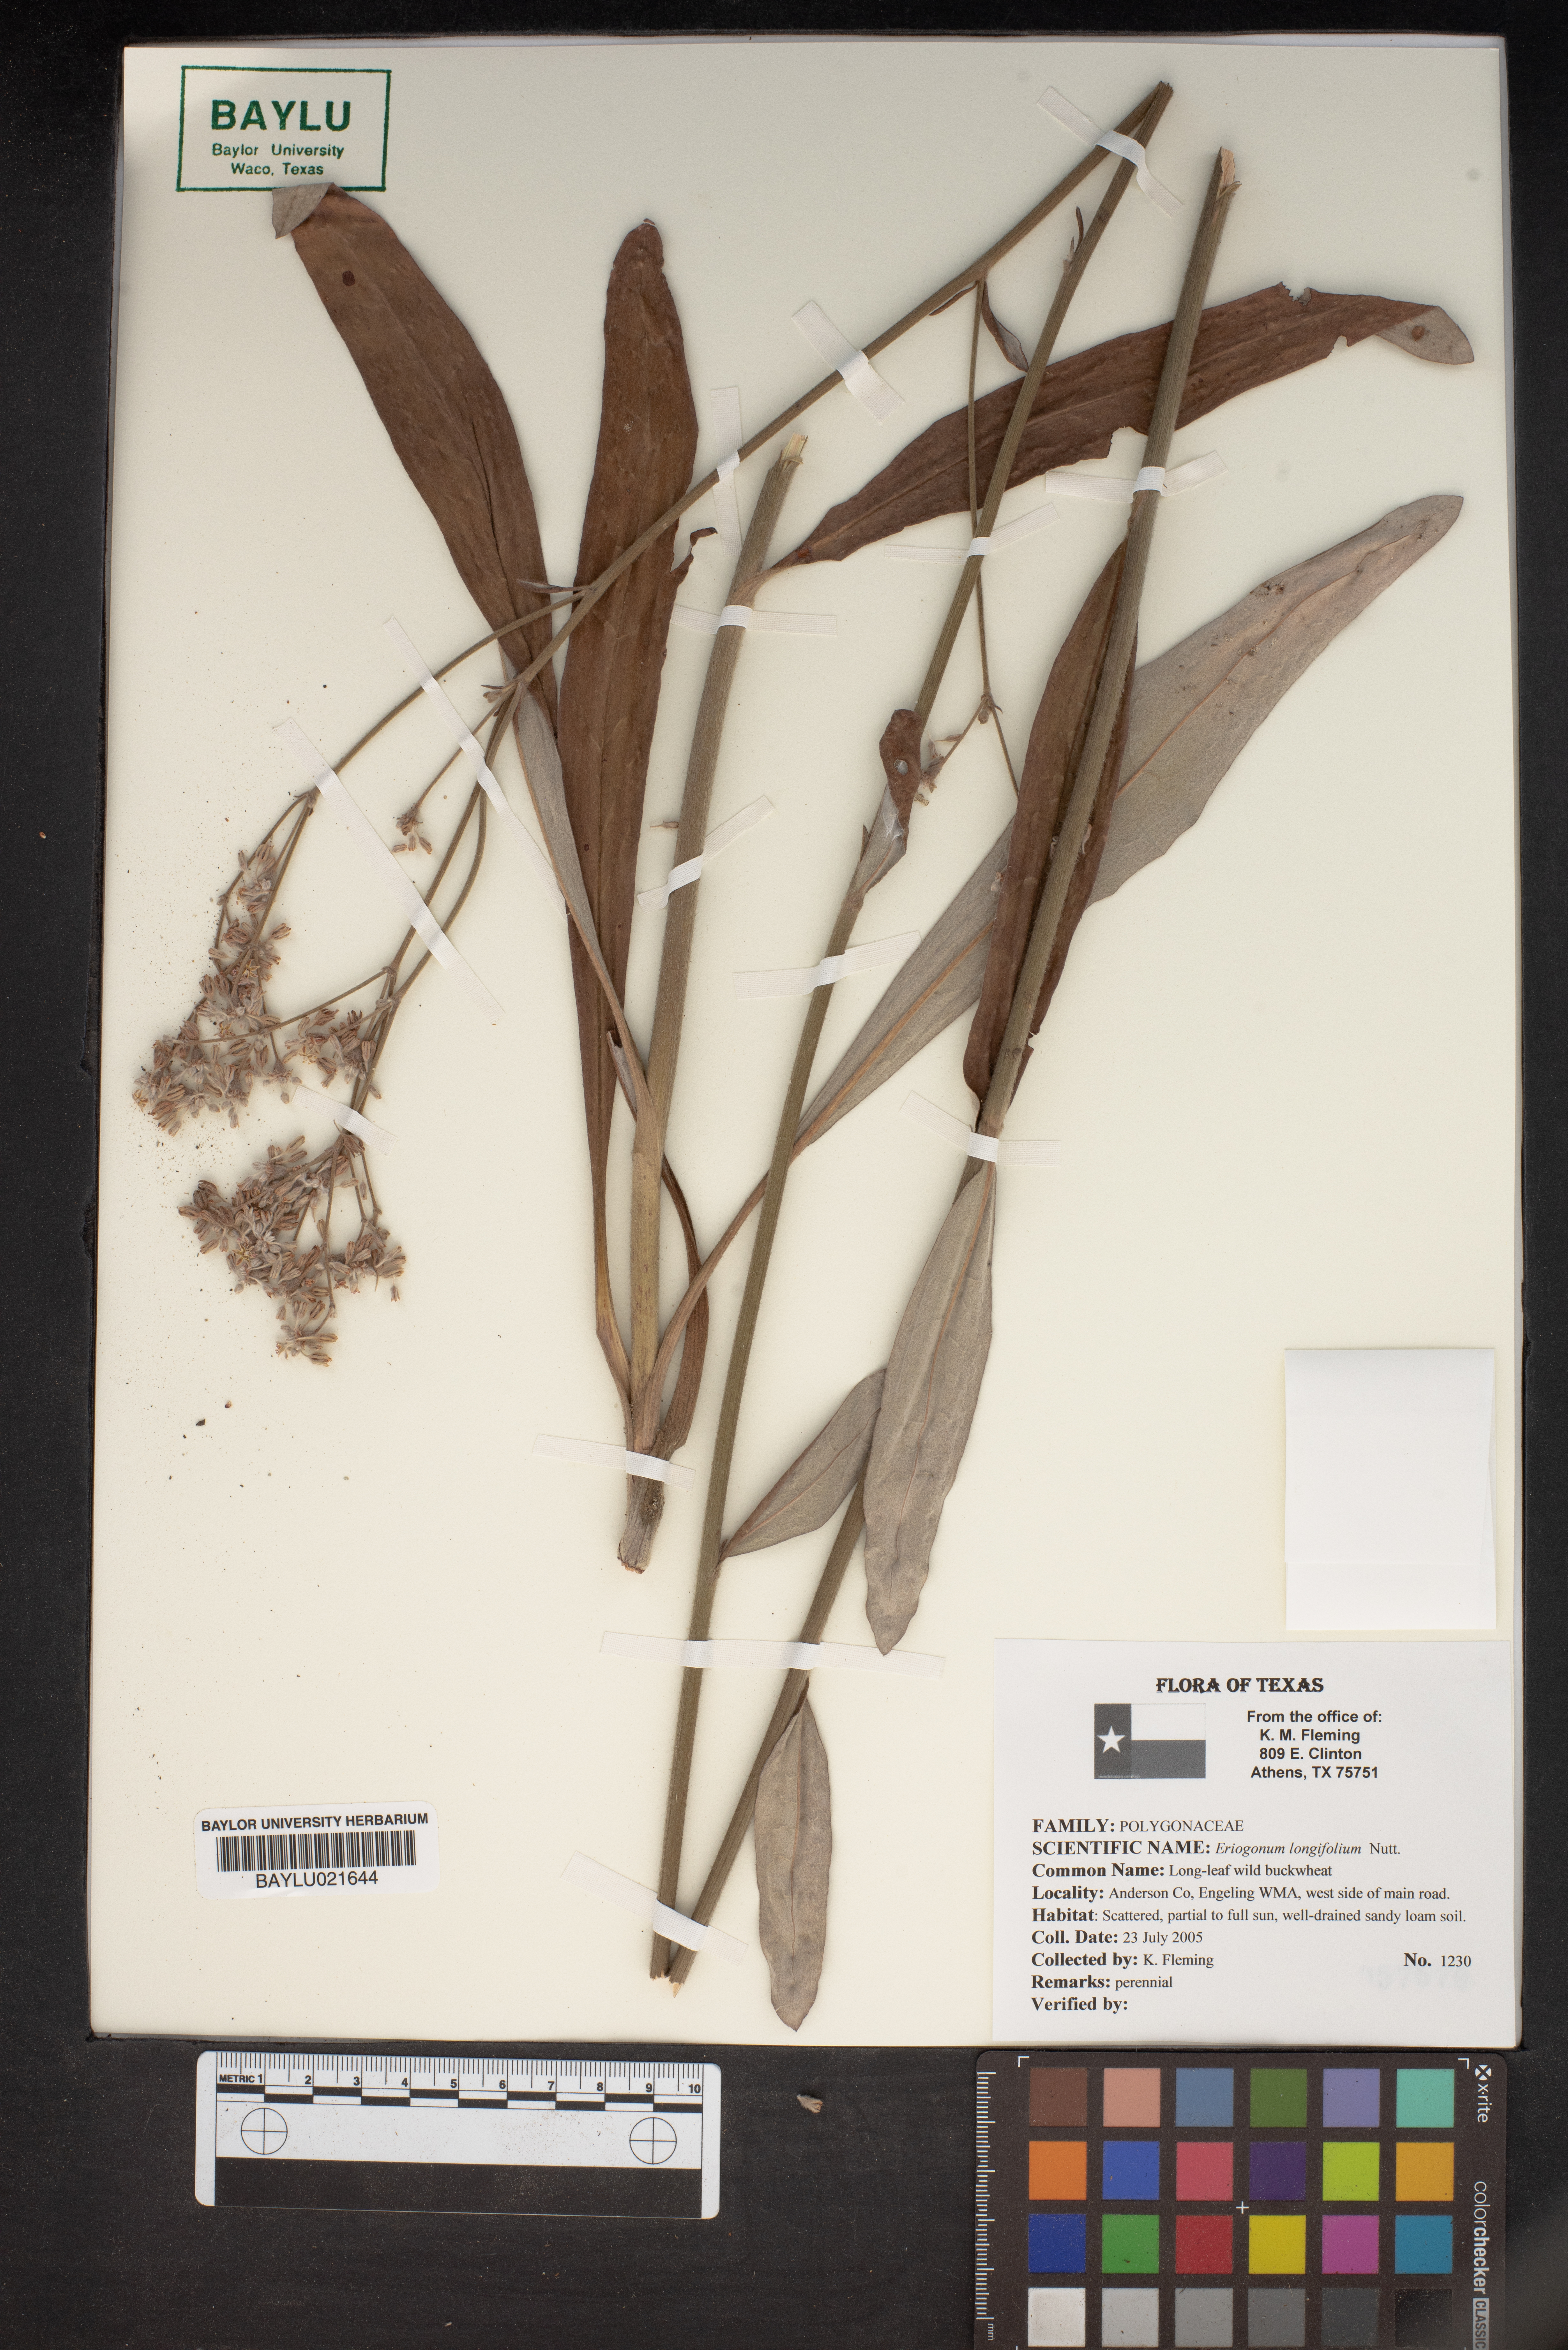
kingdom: Plantae
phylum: Tracheophyta
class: Magnoliopsida
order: Caryophyllales
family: Polygonaceae
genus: Eriogonum
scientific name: Eriogonum longifolium
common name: Longleaf wild buckwheat
